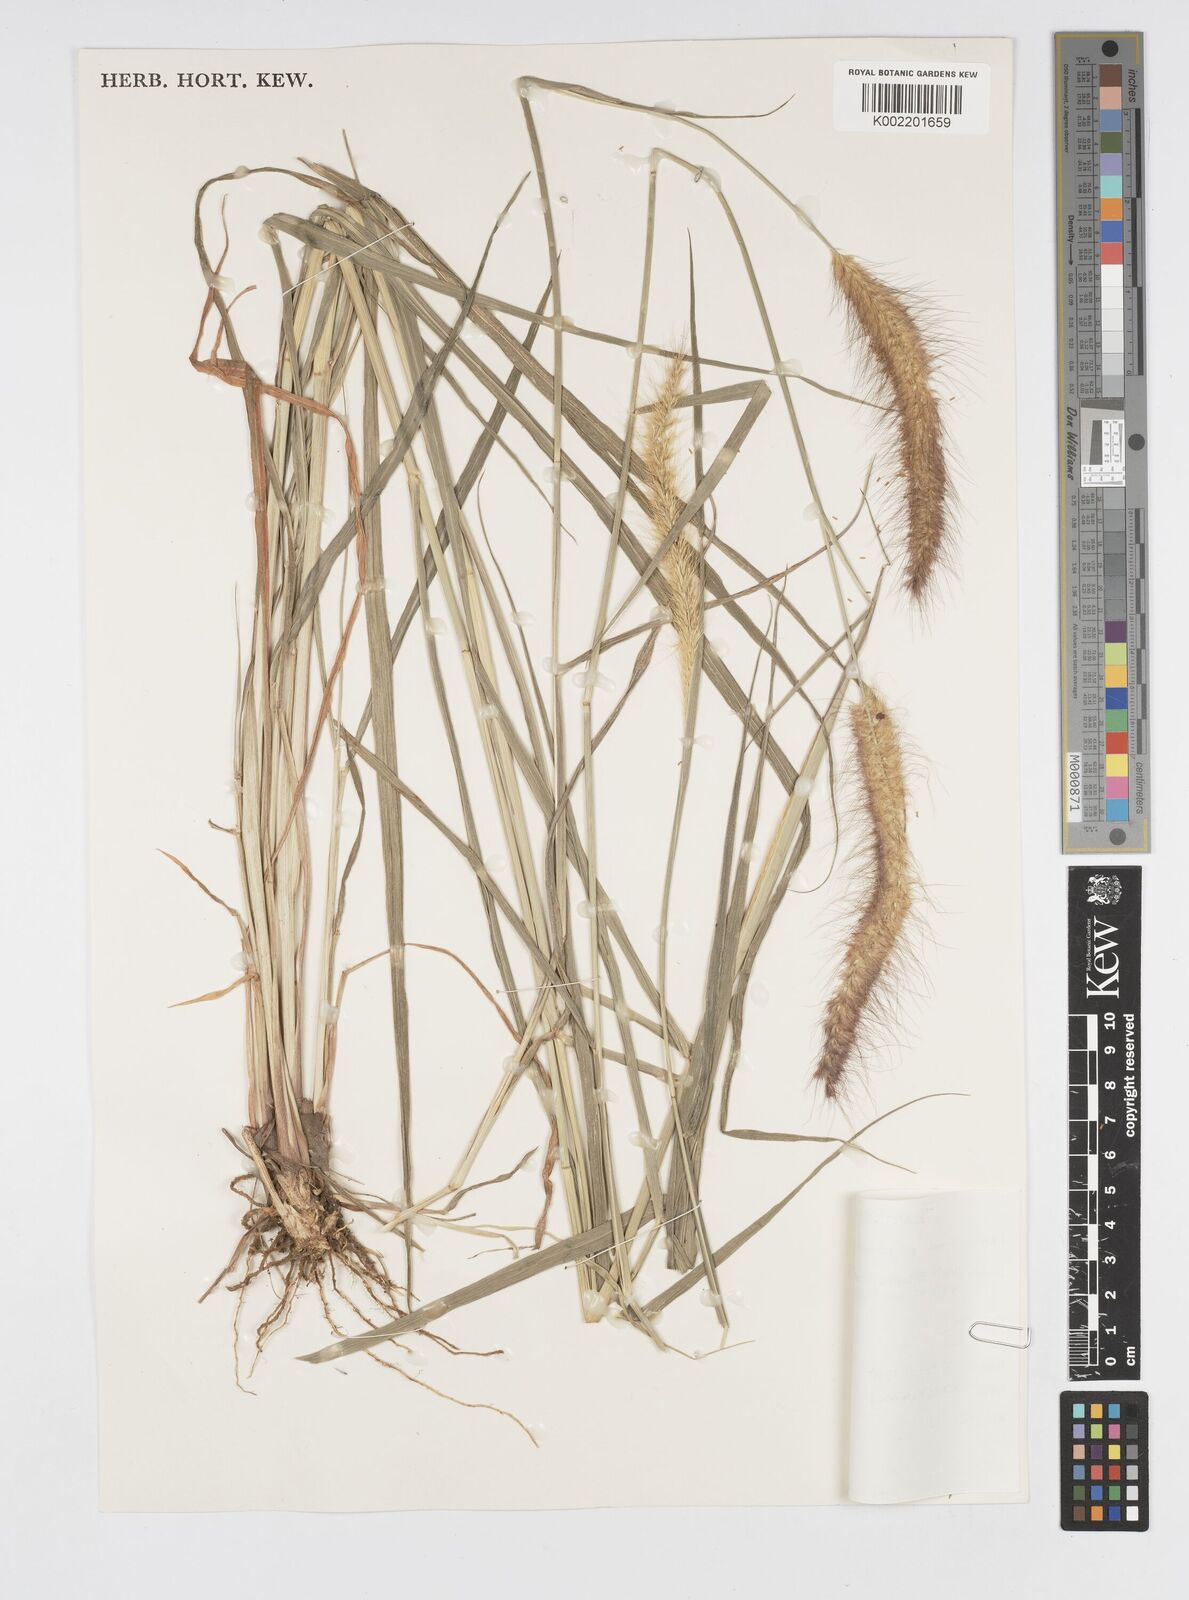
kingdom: Plantae
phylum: Tracheophyta
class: Liliopsida
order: Poales
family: Poaceae
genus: Setaria
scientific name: Setaria parviflora
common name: Knotroot bristle-grass
